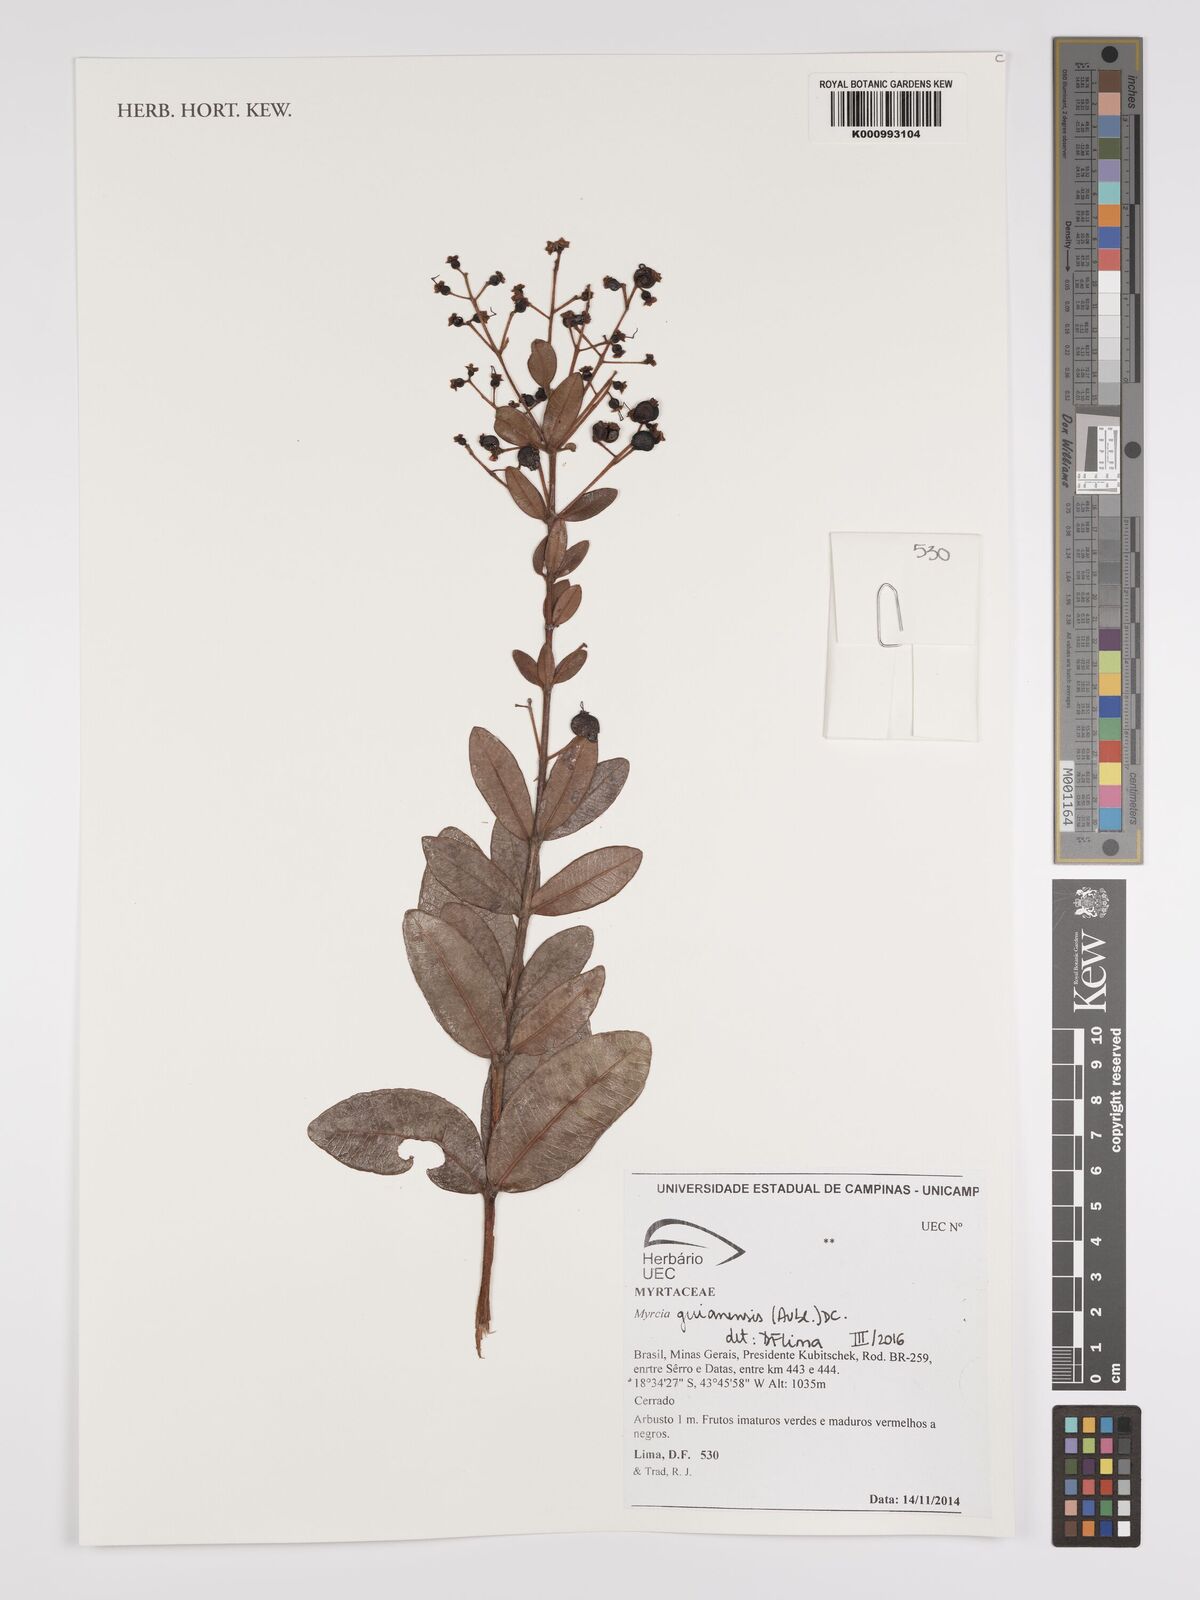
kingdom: Plantae
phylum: Tracheophyta
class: Magnoliopsida
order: Myrtales
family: Myrtaceae
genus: Myrcia
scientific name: Myrcia guianensis
